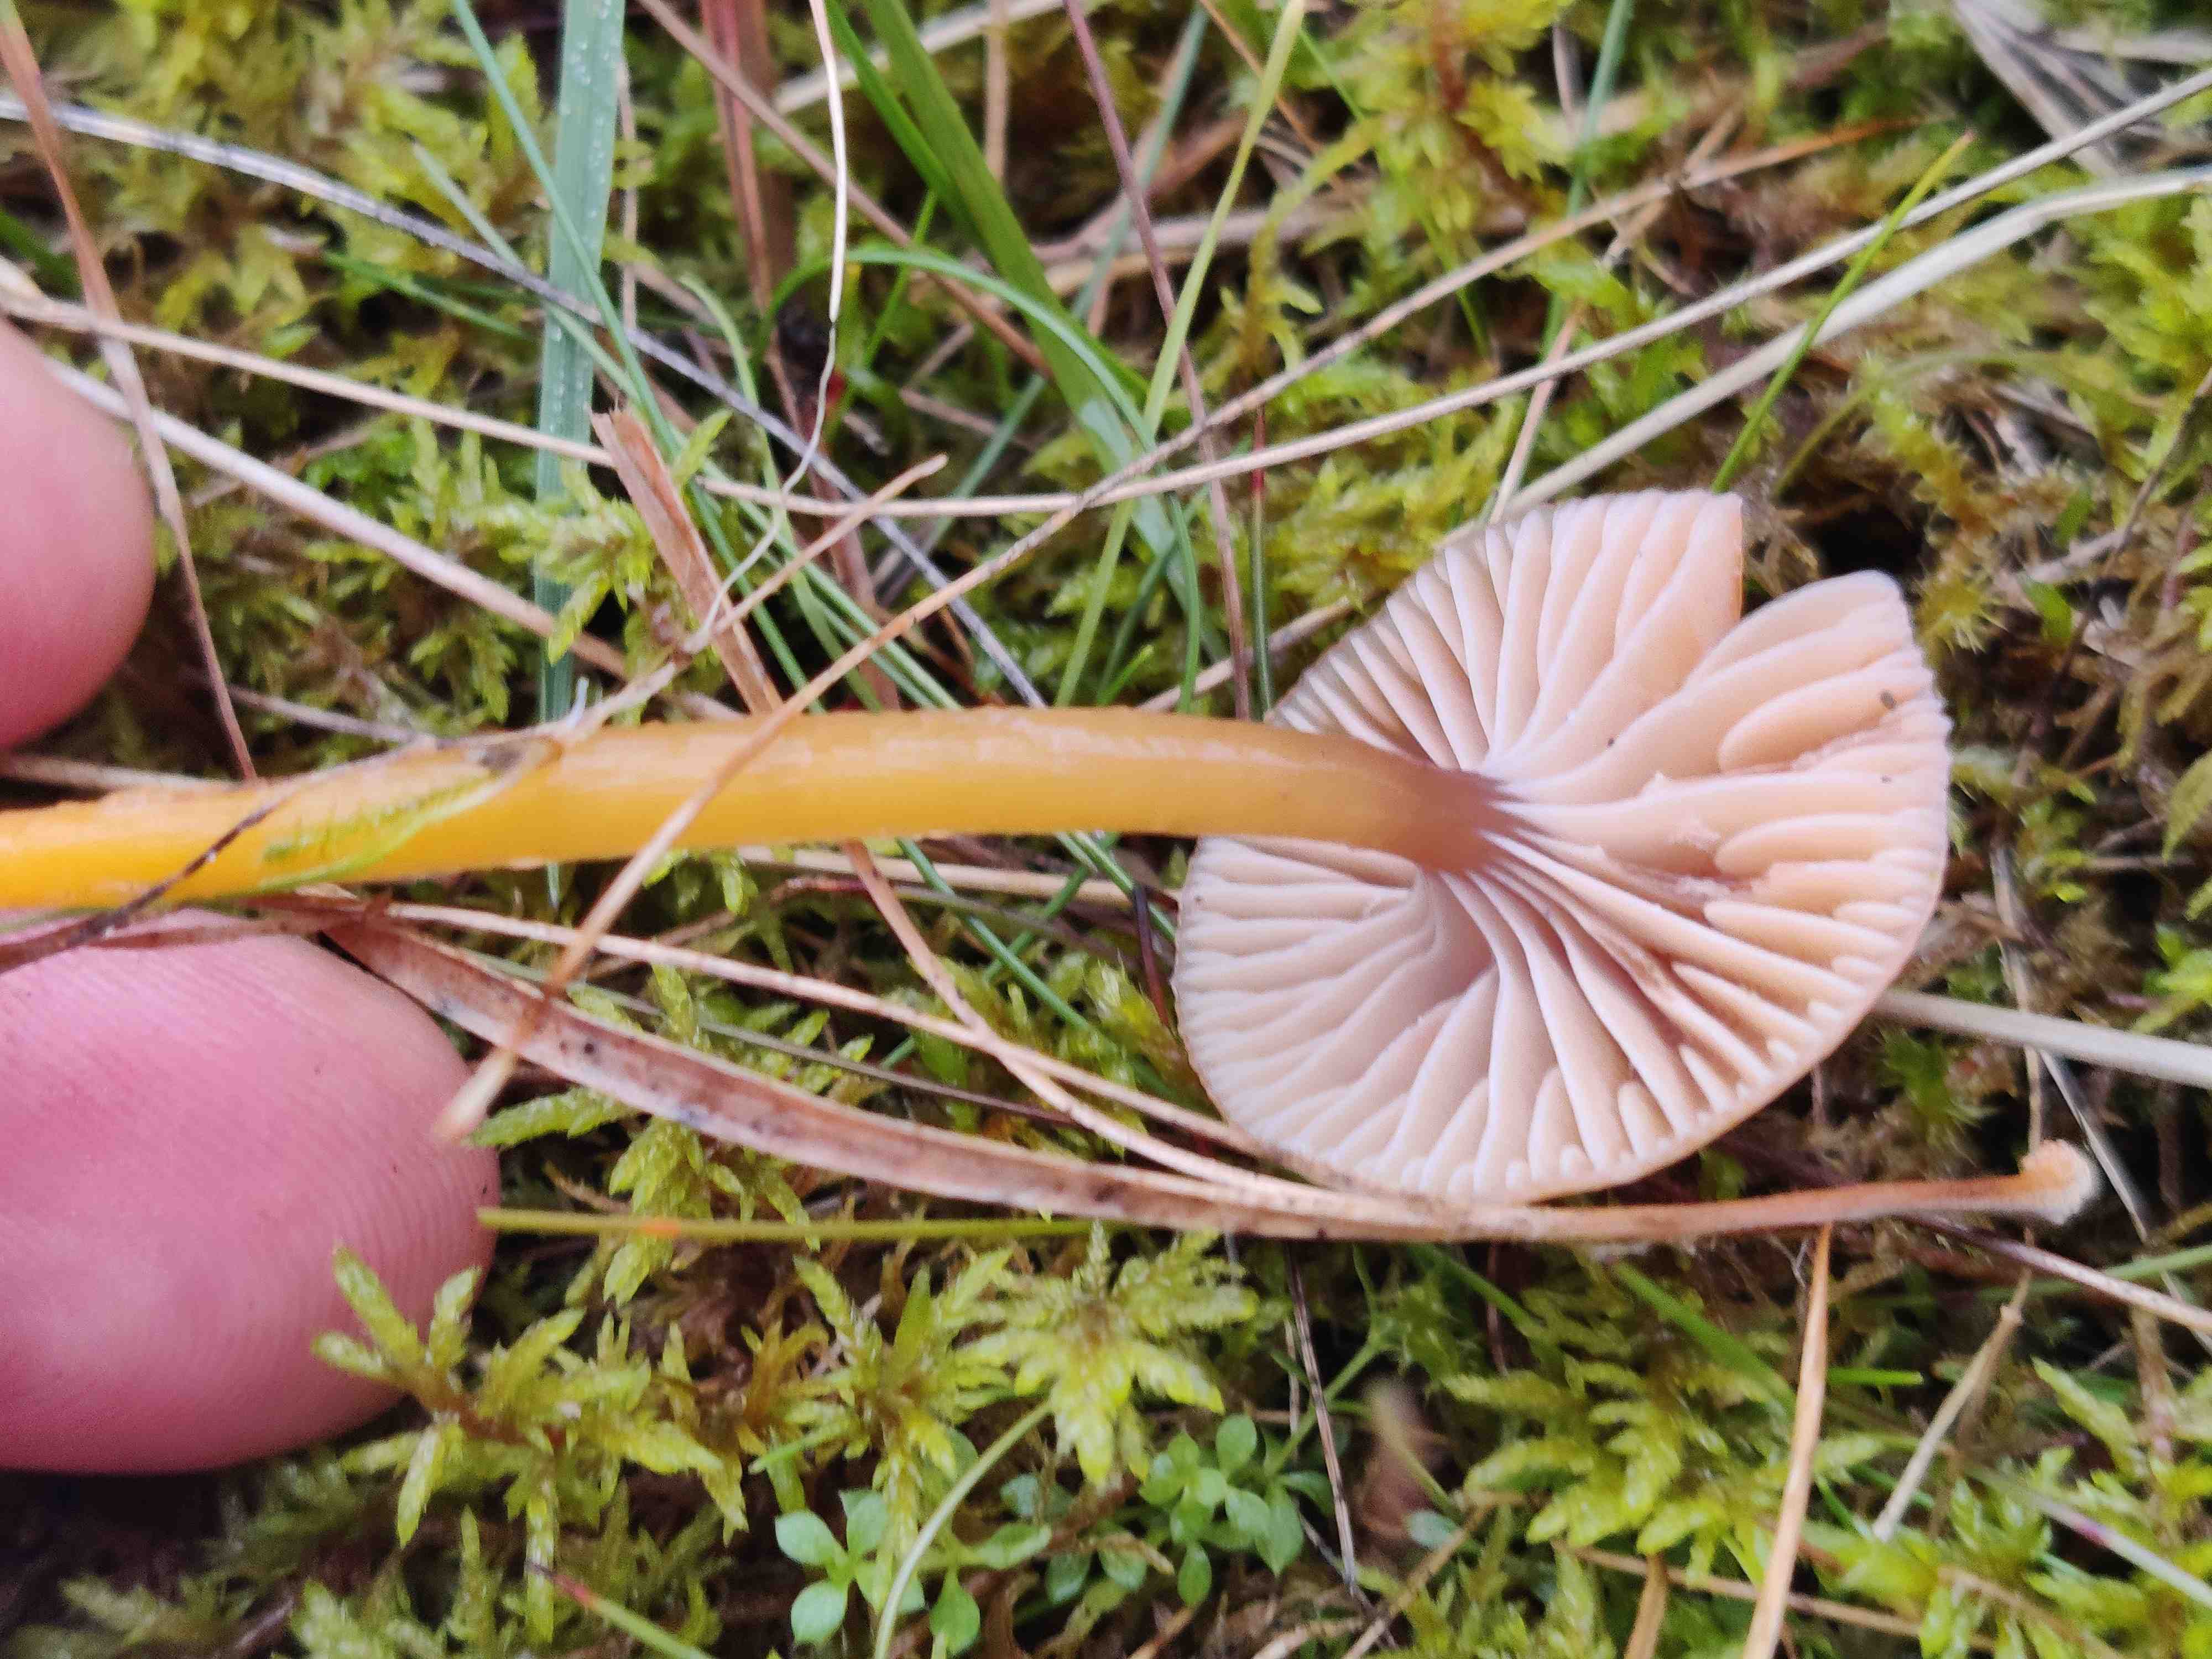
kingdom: Fungi
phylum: Basidiomycota
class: Agaricomycetes
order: Agaricales
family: Hygrophoraceae
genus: Gliophorus
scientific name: Gliophorus laetus
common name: brusk-vokshat
